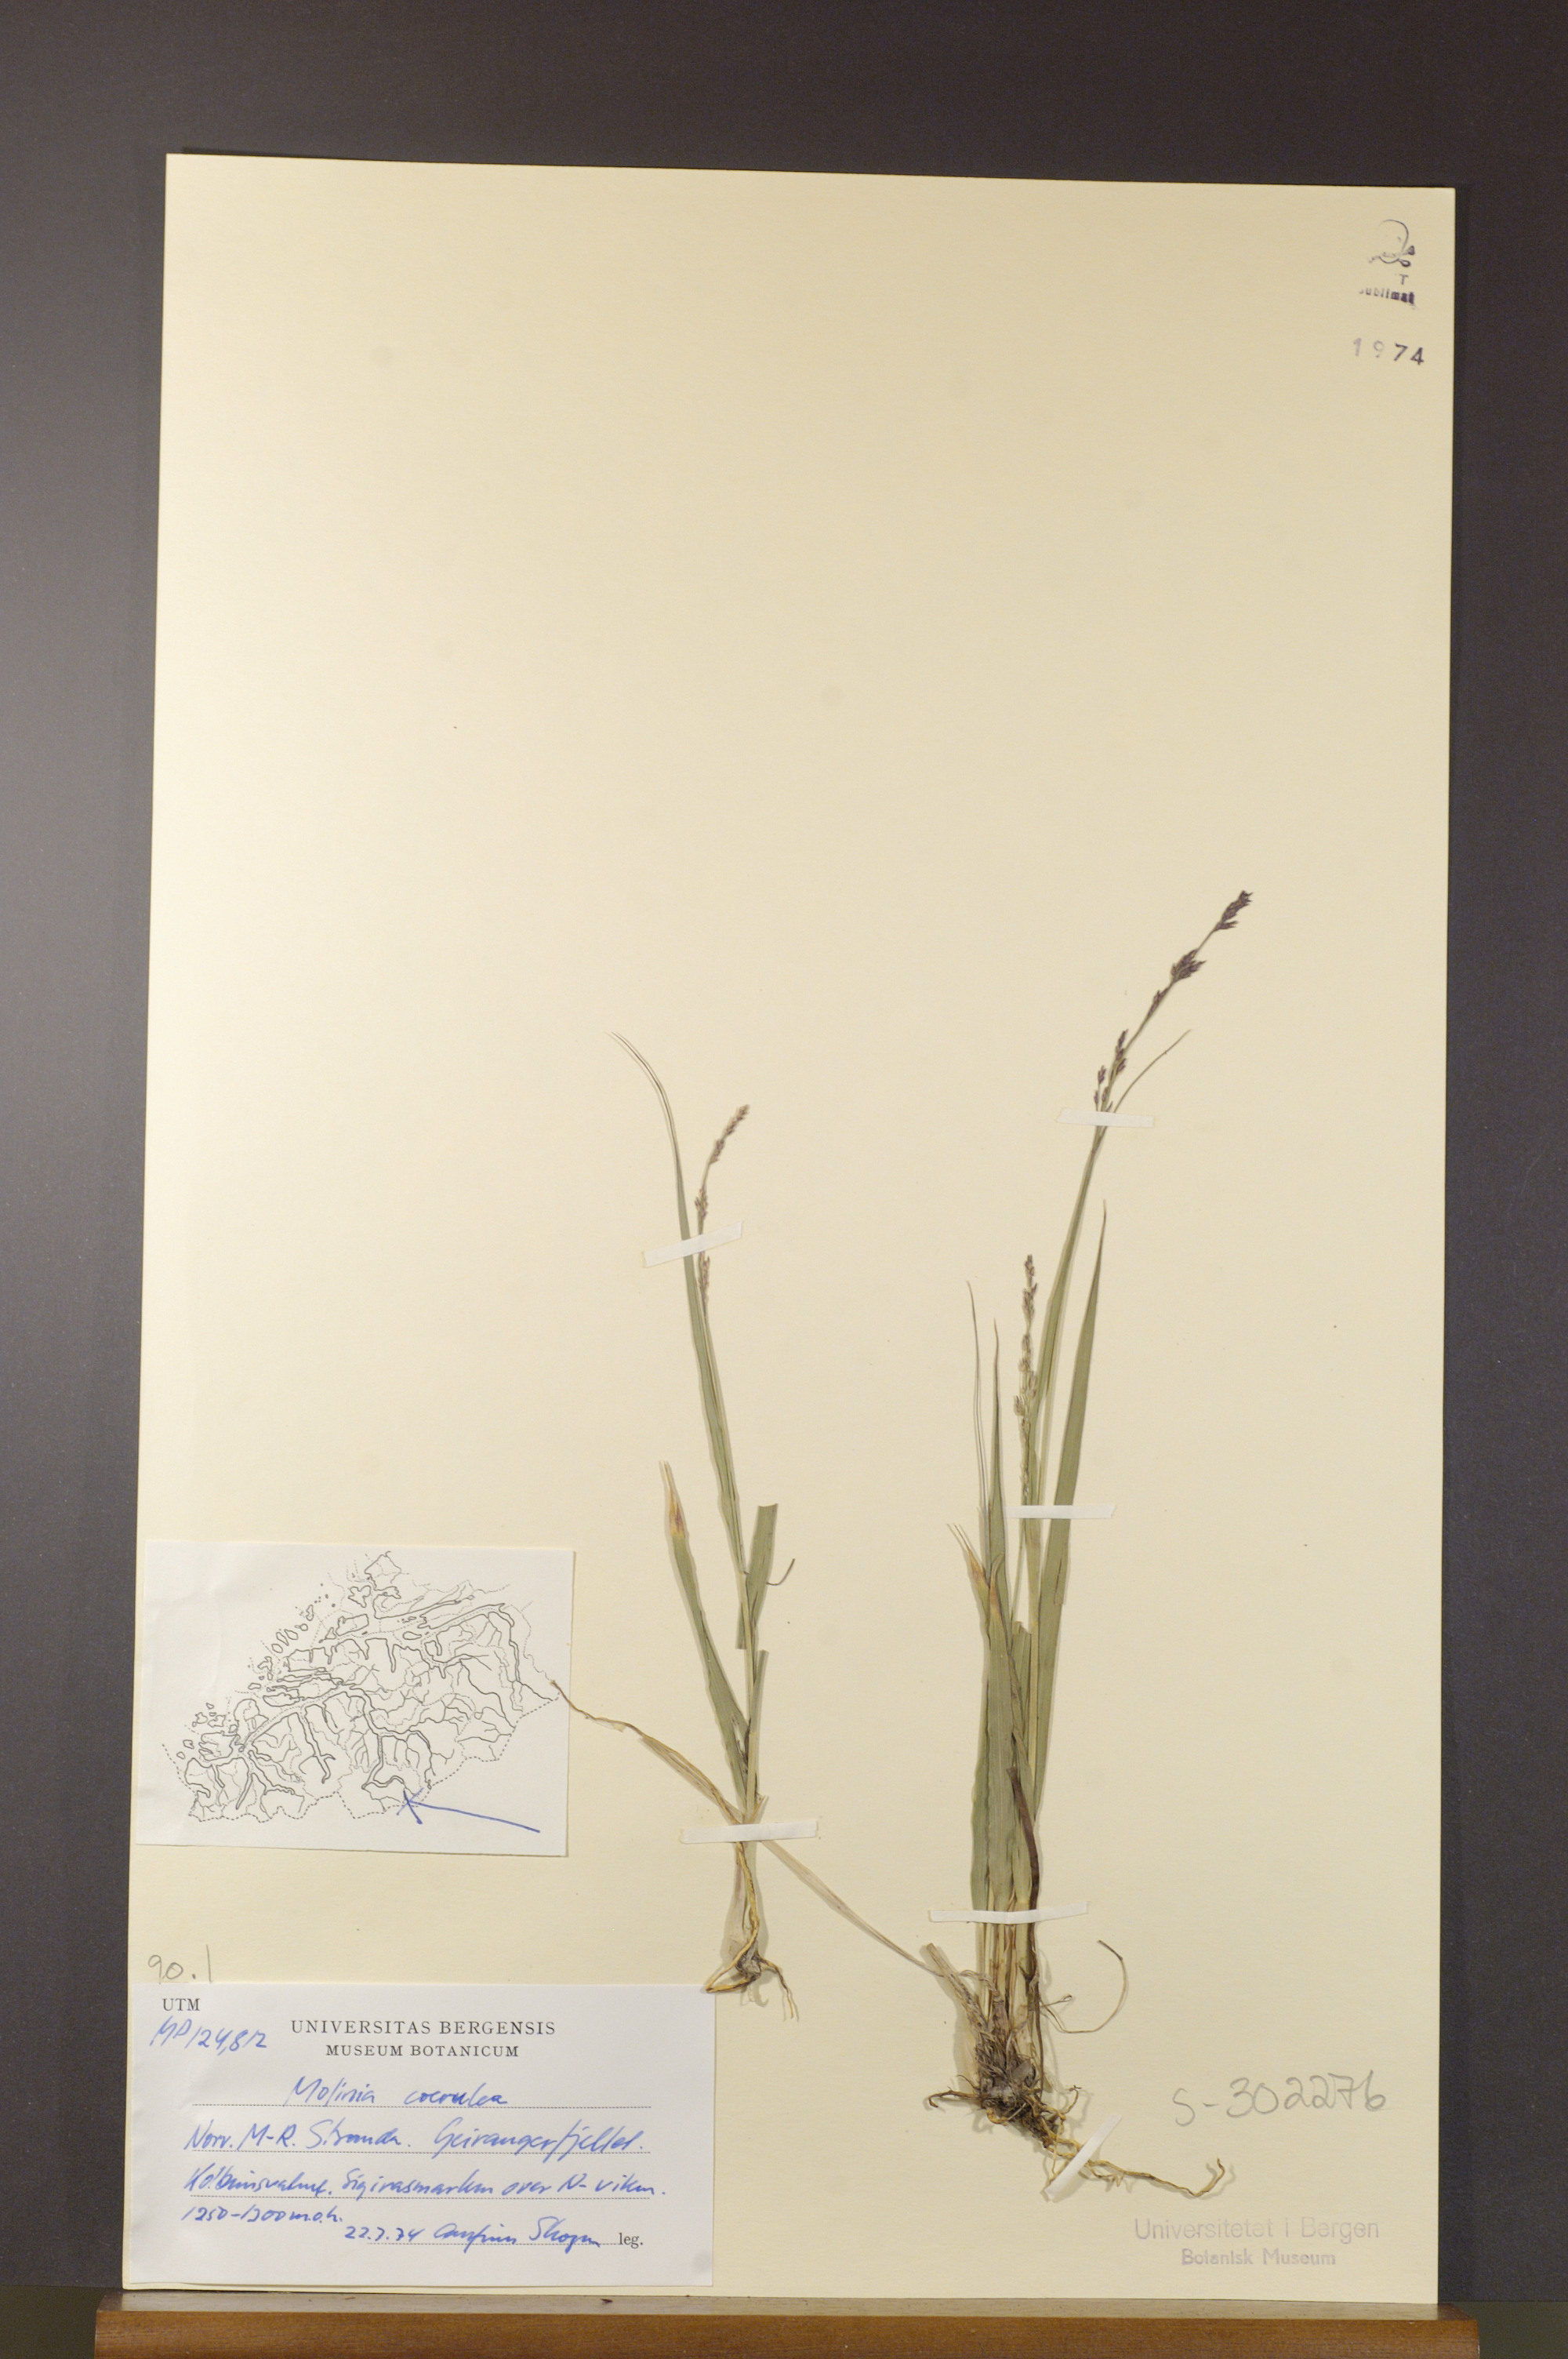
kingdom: Plantae
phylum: Tracheophyta
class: Liliopsida
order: Poales
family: Poaceae
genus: Molinia
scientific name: Molinia caerulea
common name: Purple moor-grass
